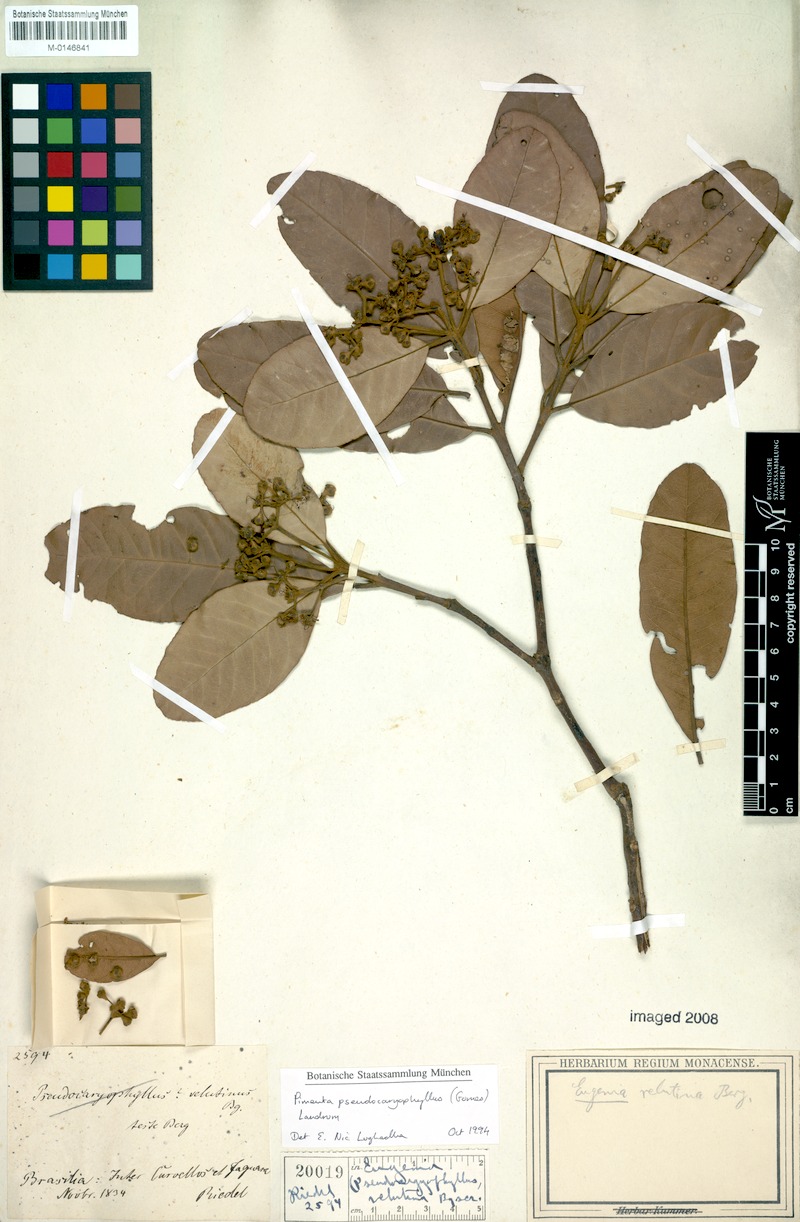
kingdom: Plantae
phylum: Tracheophyta
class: Magnoliopsida
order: Myrtales
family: Myrtaceae
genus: Pimenta
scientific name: Pimenta pseudocaryophyllus
